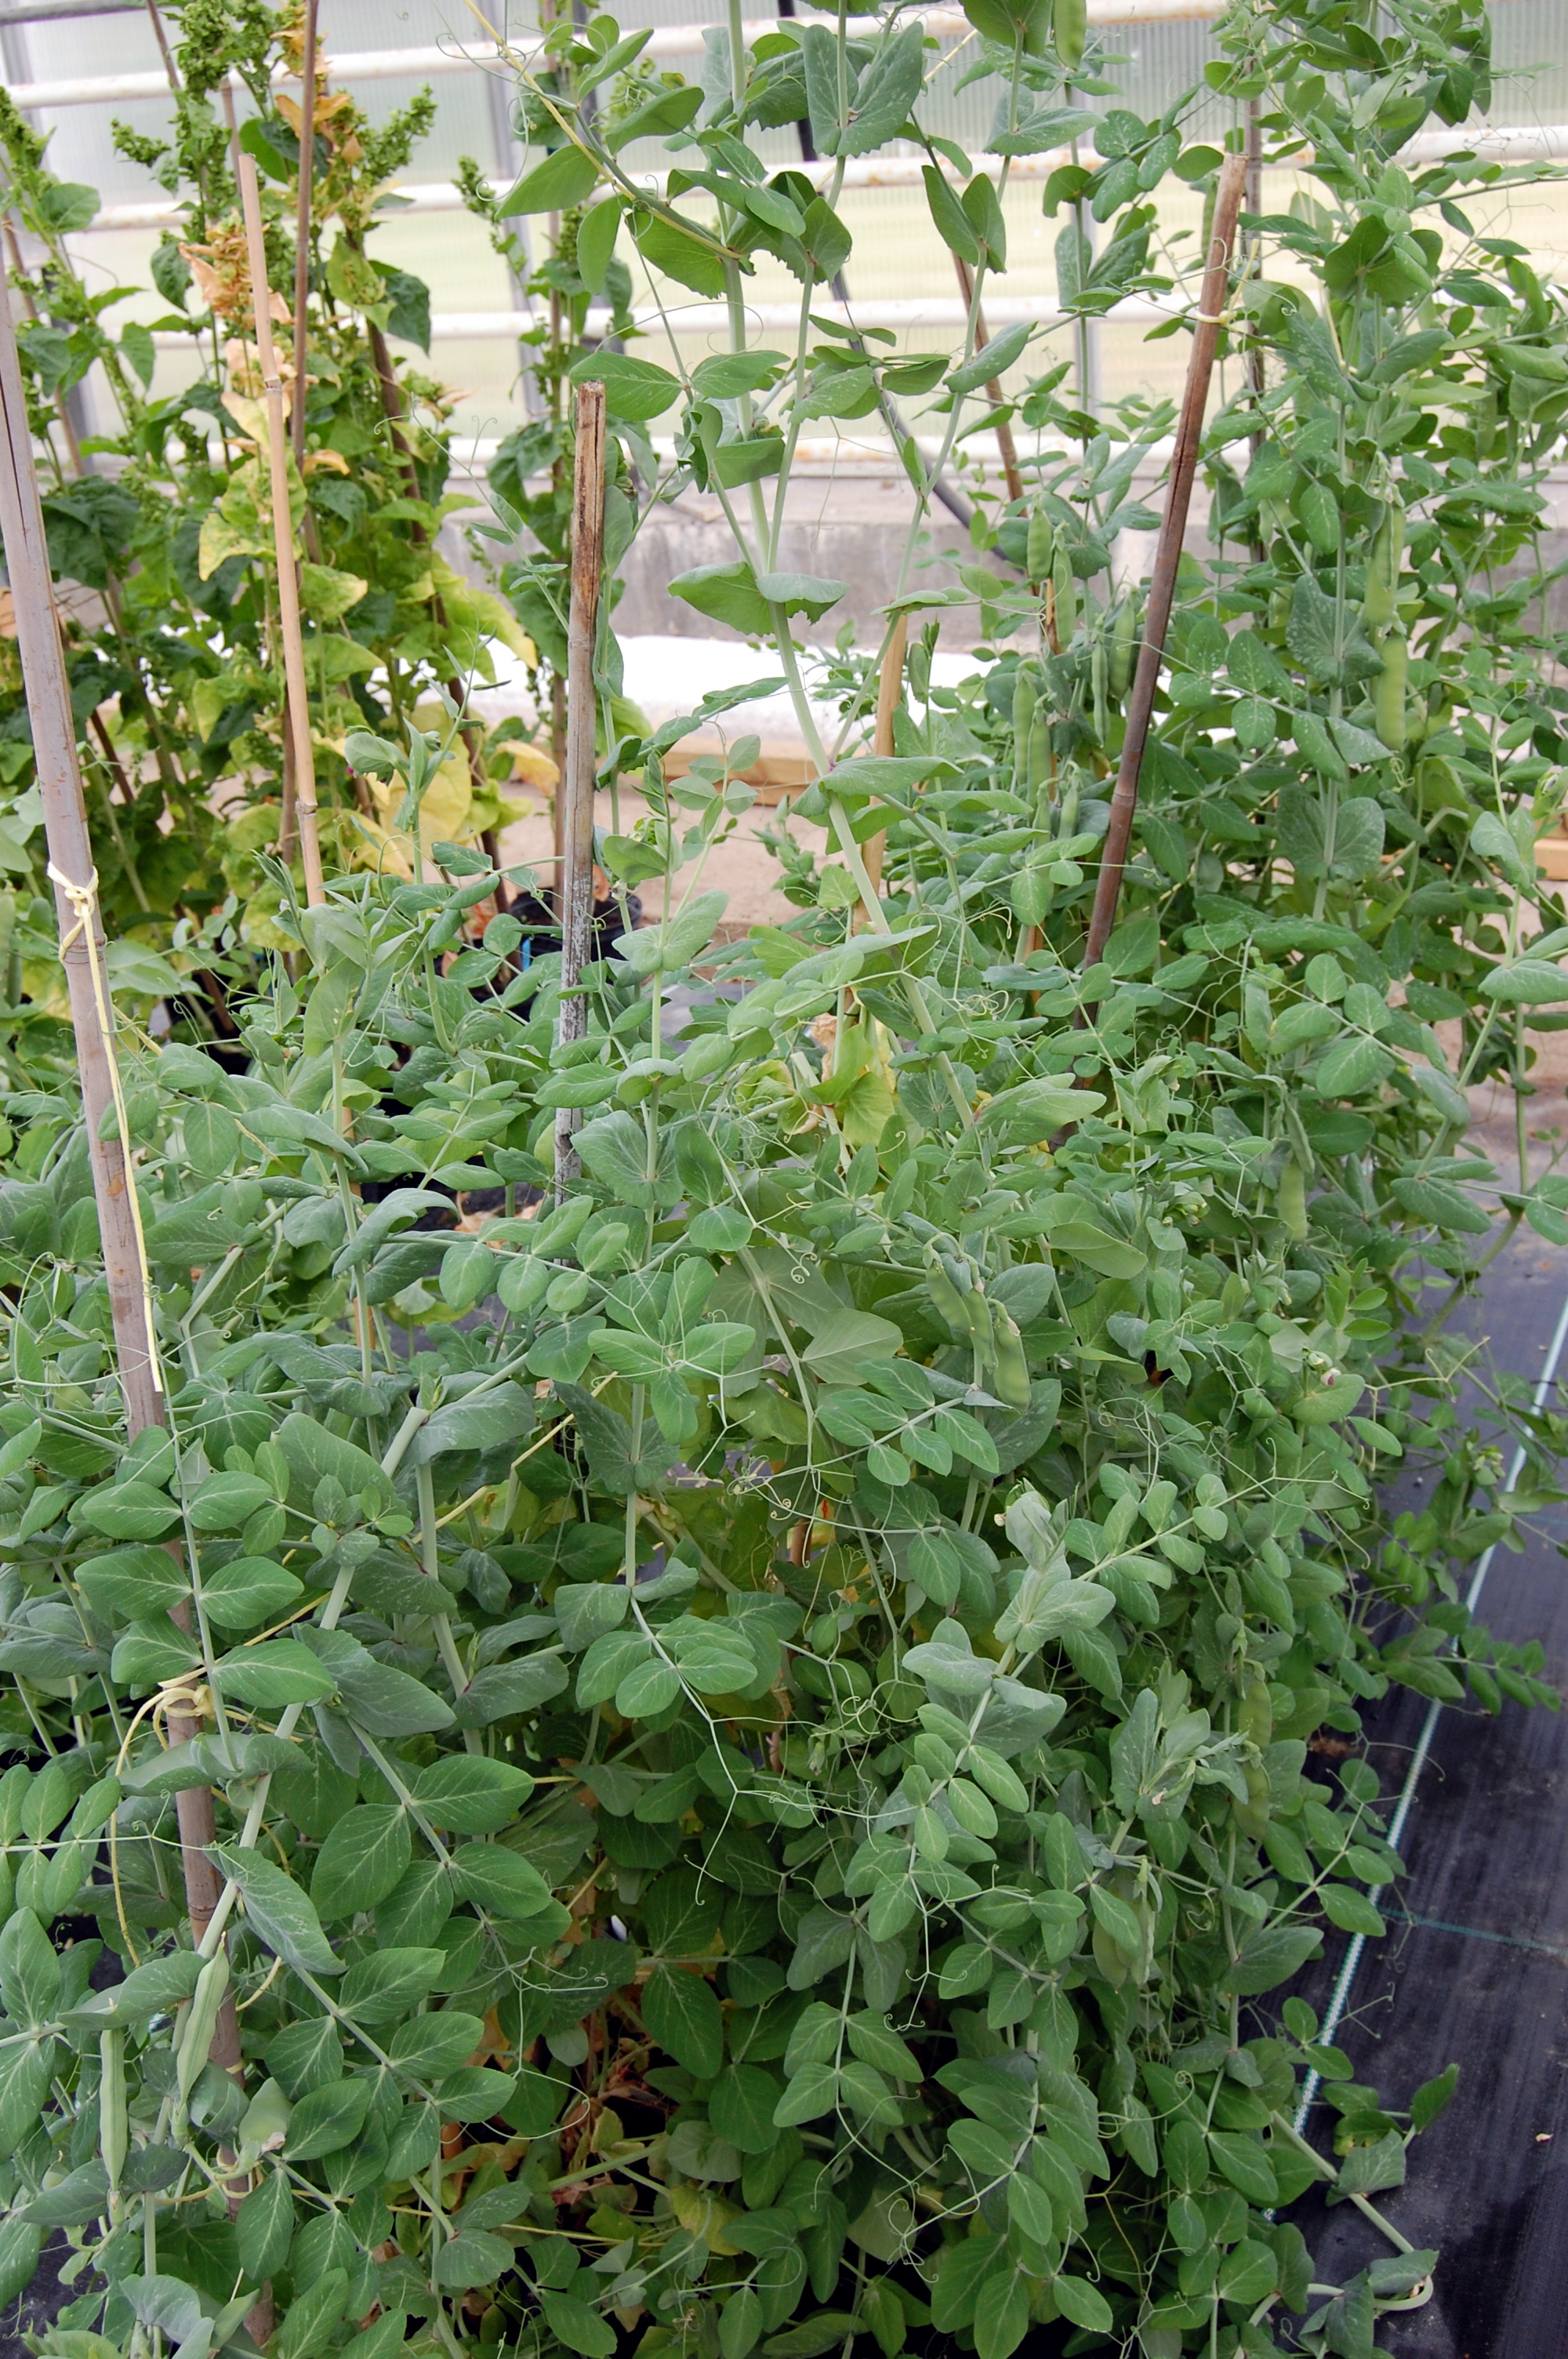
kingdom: Plantae
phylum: Tracheophyta
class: Magnoliopsida
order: Fabales
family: Fabaceae
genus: Lathyrus
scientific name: Lathyrus oleraceus
